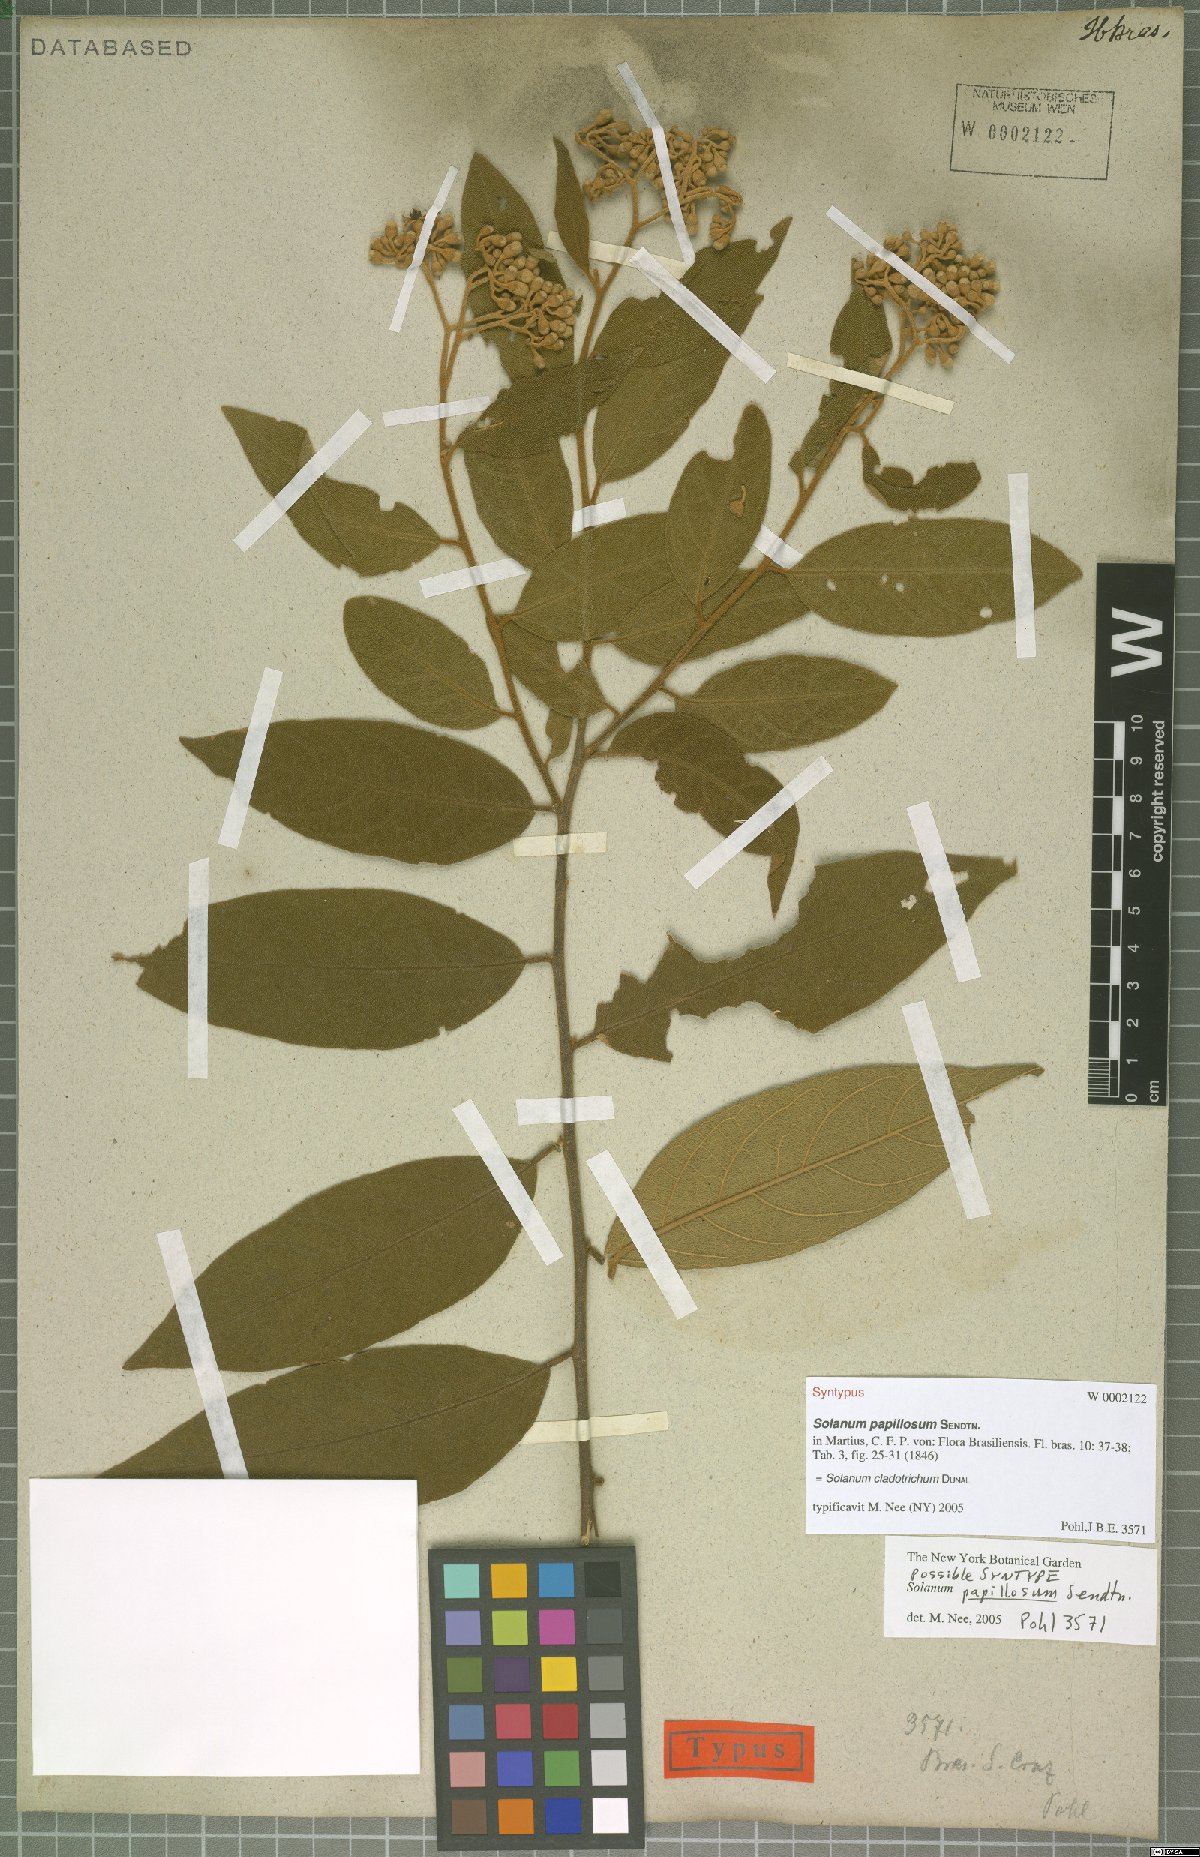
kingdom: Plantae
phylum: Tracheophyta
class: Magnoliopsida
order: Solanales
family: Solanaceae
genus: Solanum
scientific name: Solanum jussiaei
